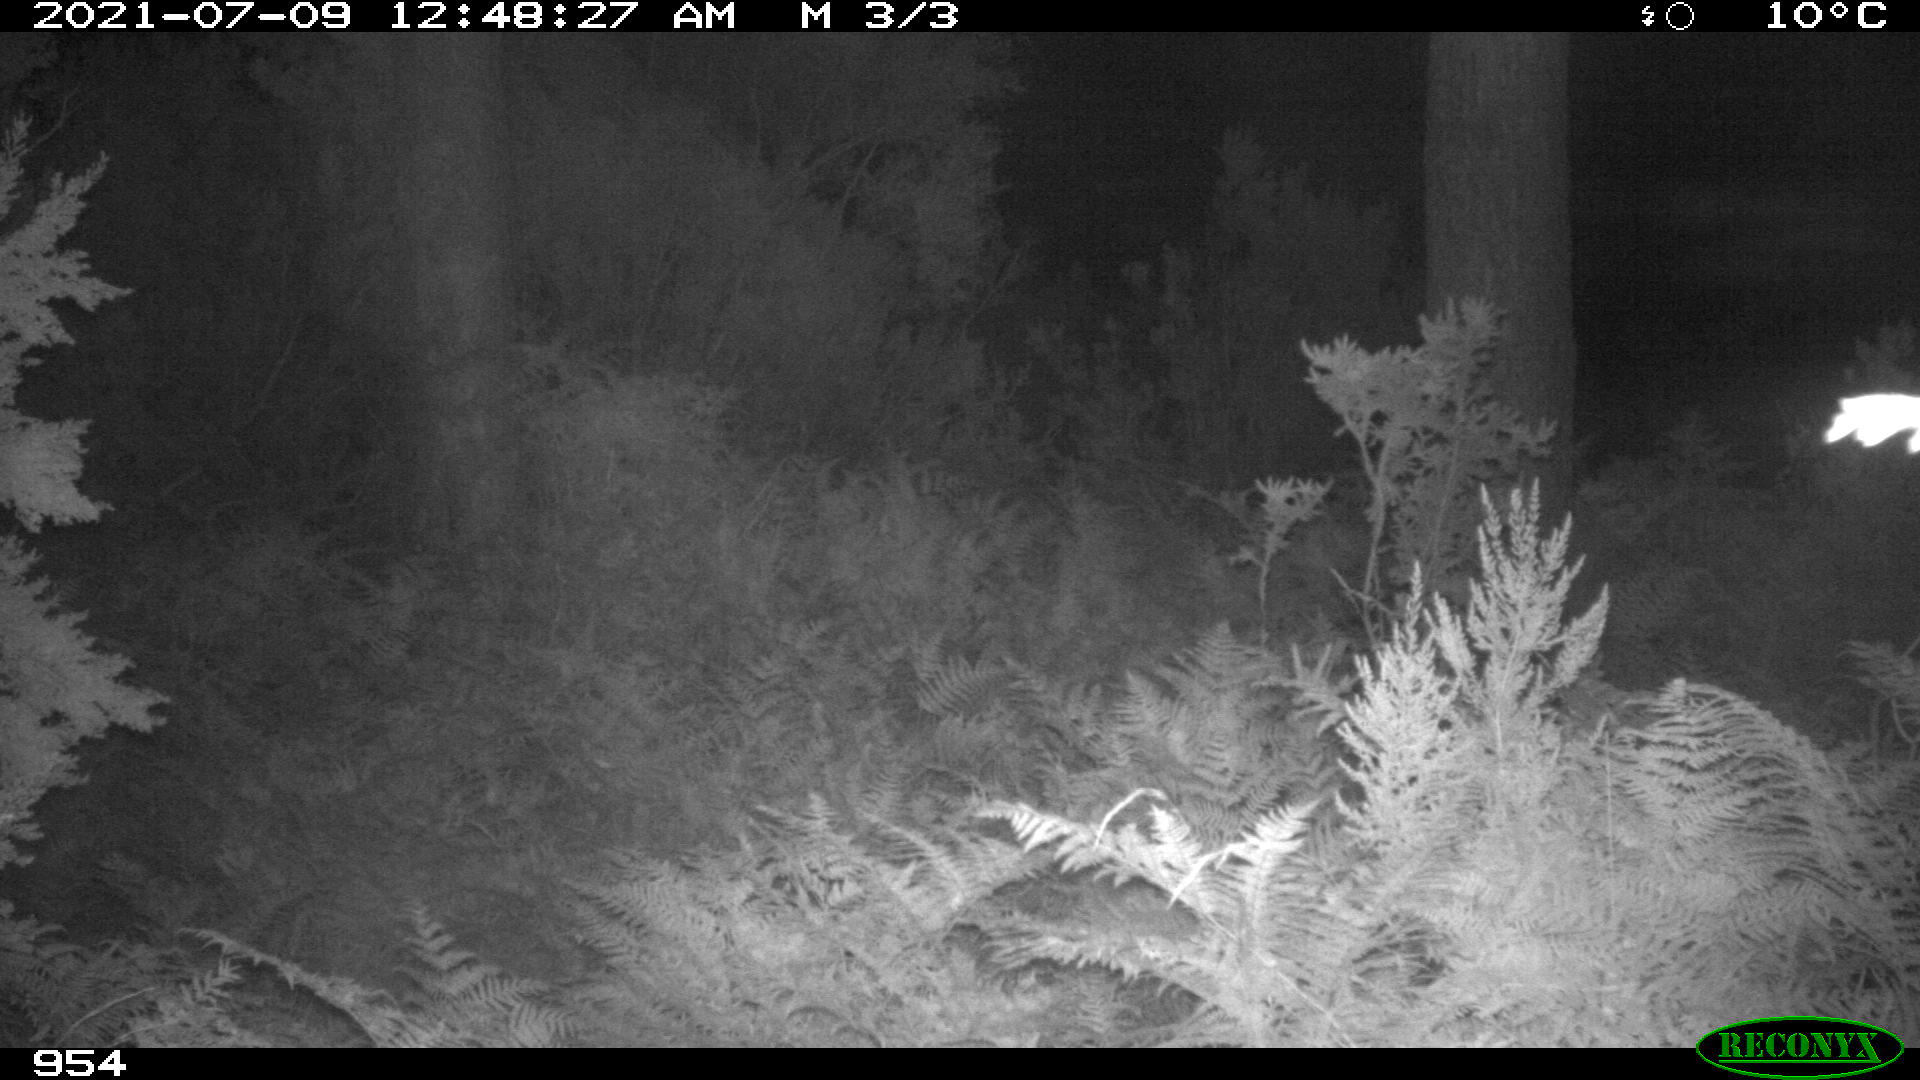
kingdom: Animalia
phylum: Chordata
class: Mammalia
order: Artiodactyla
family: Cervidae
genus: Capreolus
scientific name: Capreolus capreolus
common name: Western roe deer
